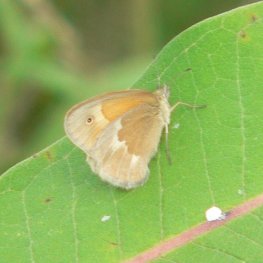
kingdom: Animalia
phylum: Arthropoda
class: Insecta
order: Lepidoptera
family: Nymphalidae
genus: Coenonympha
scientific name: Coenonympha tullia
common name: Large Heath
